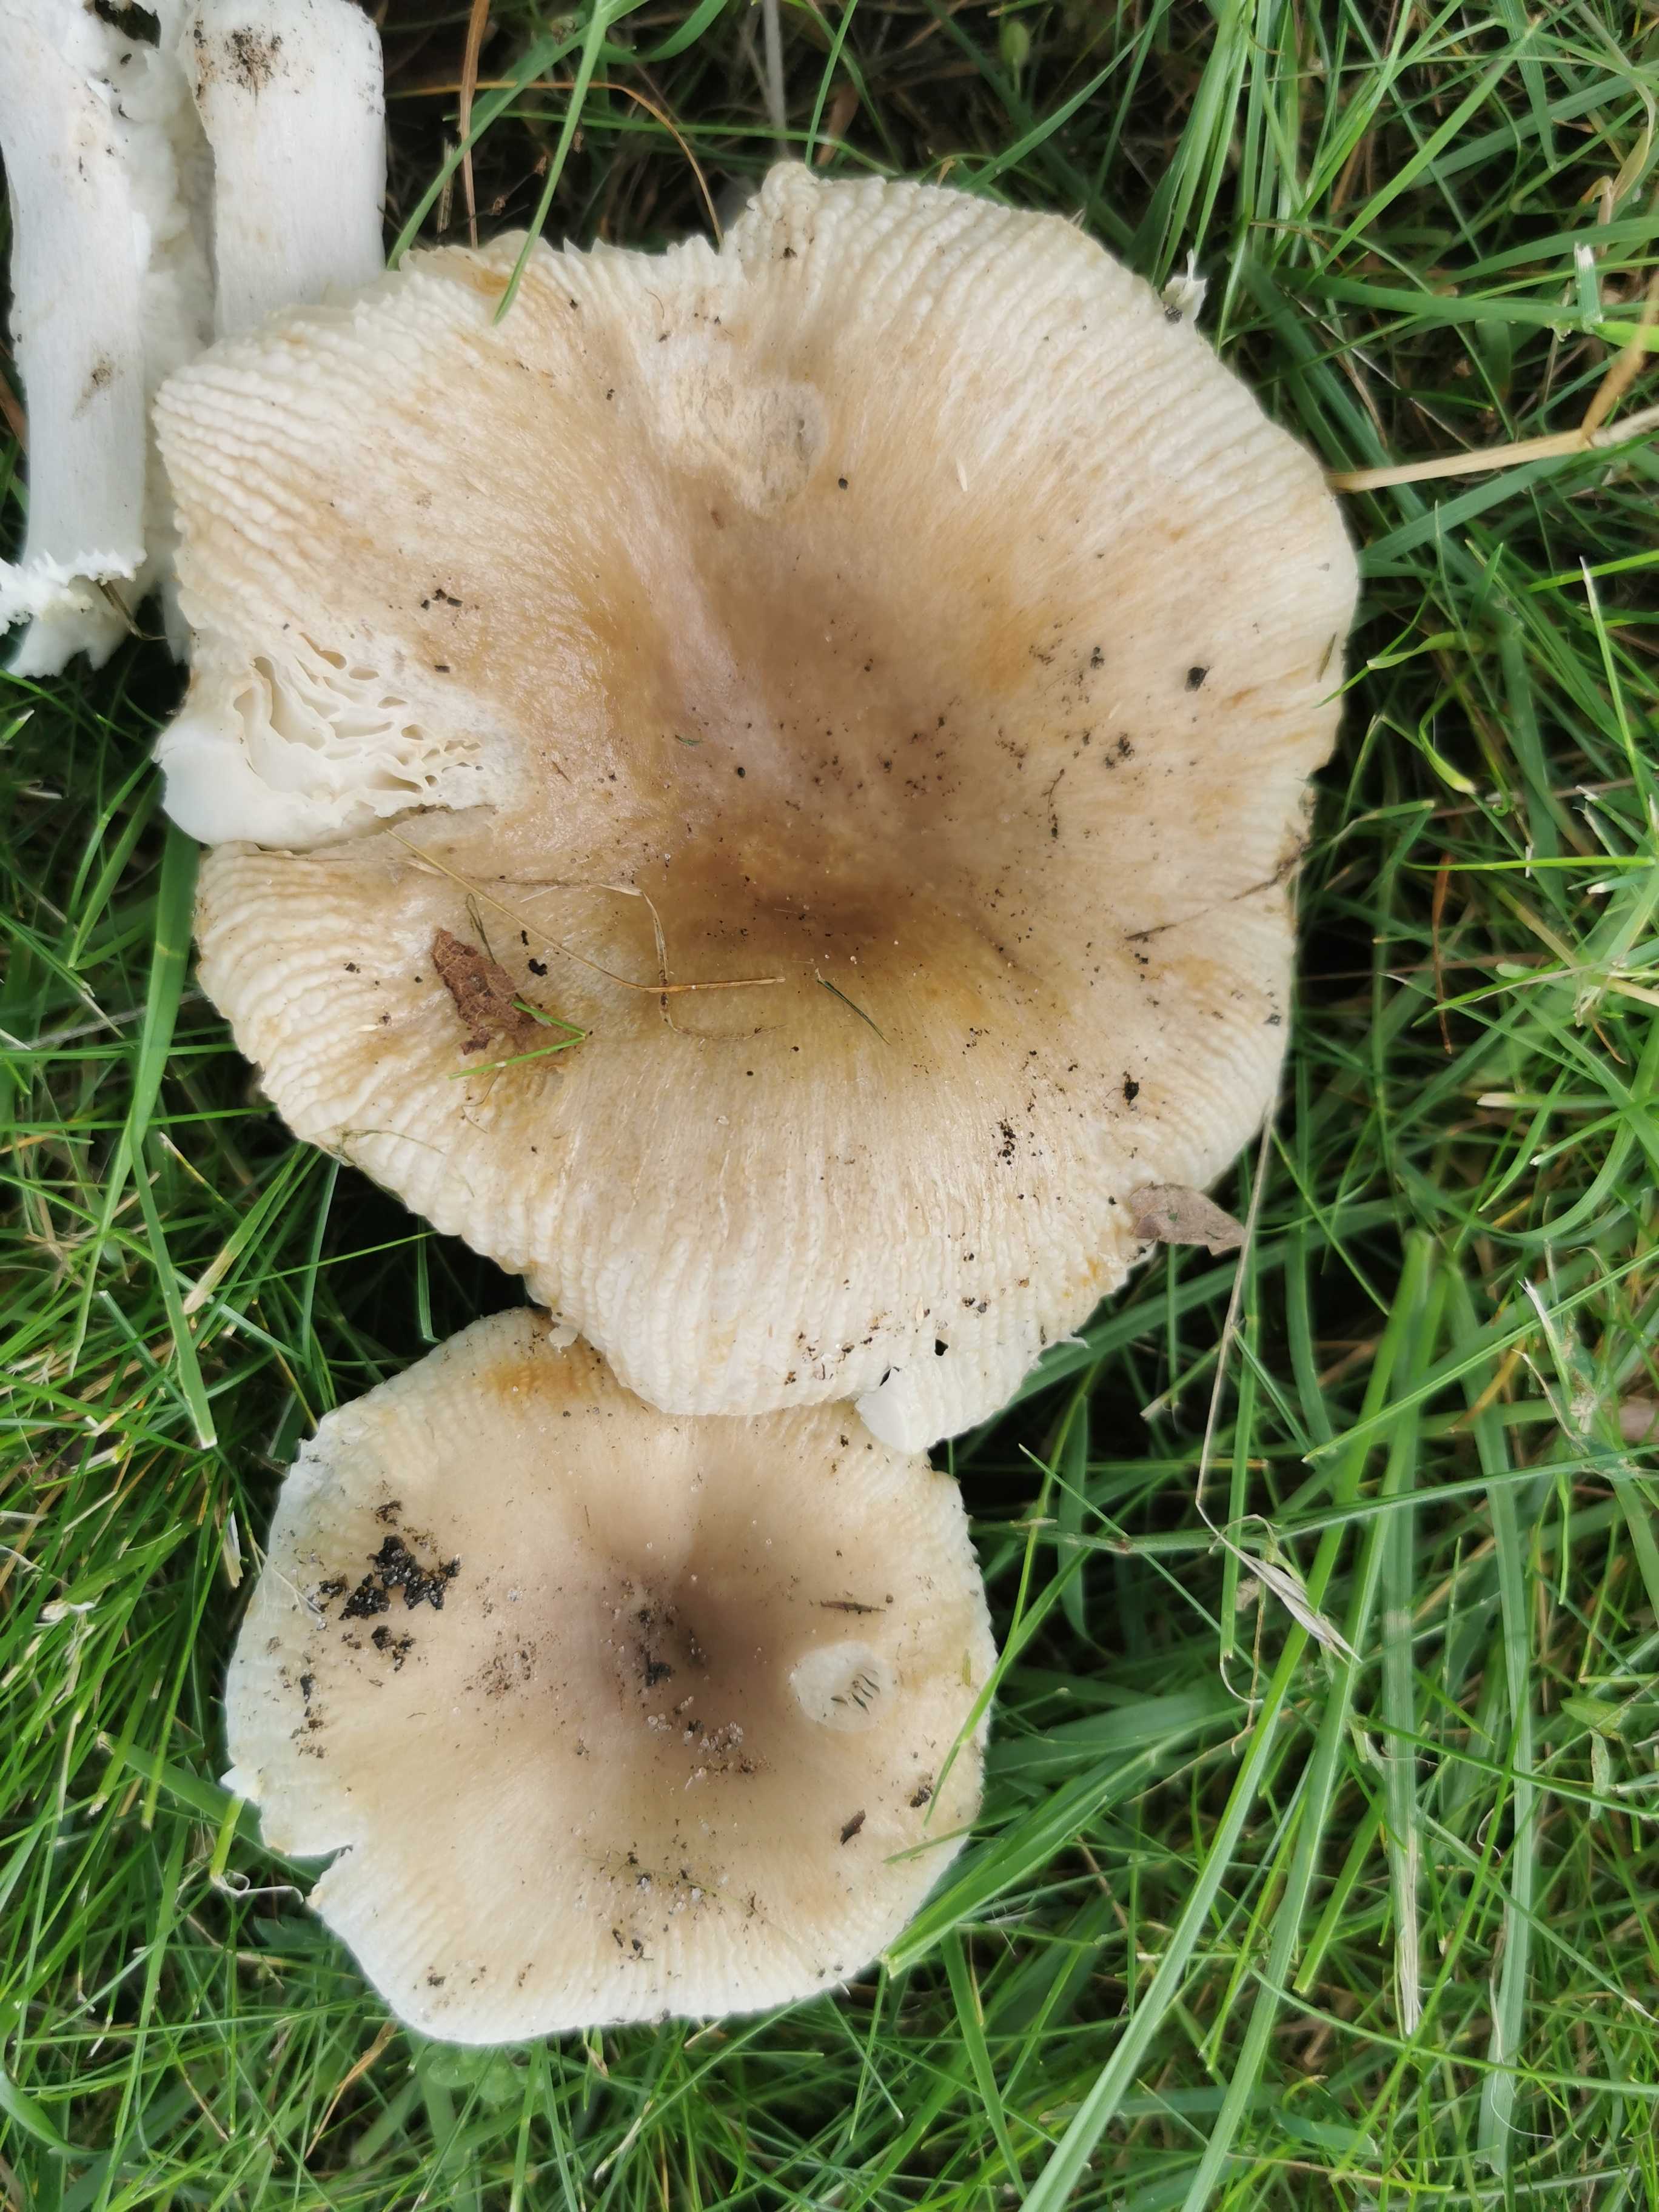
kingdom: Fungi
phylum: Basidiomycota
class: Agaricomycetes
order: Russulales
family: Russulaceae
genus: Russula
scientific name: Russula recondita
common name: mild kam-skørhat
